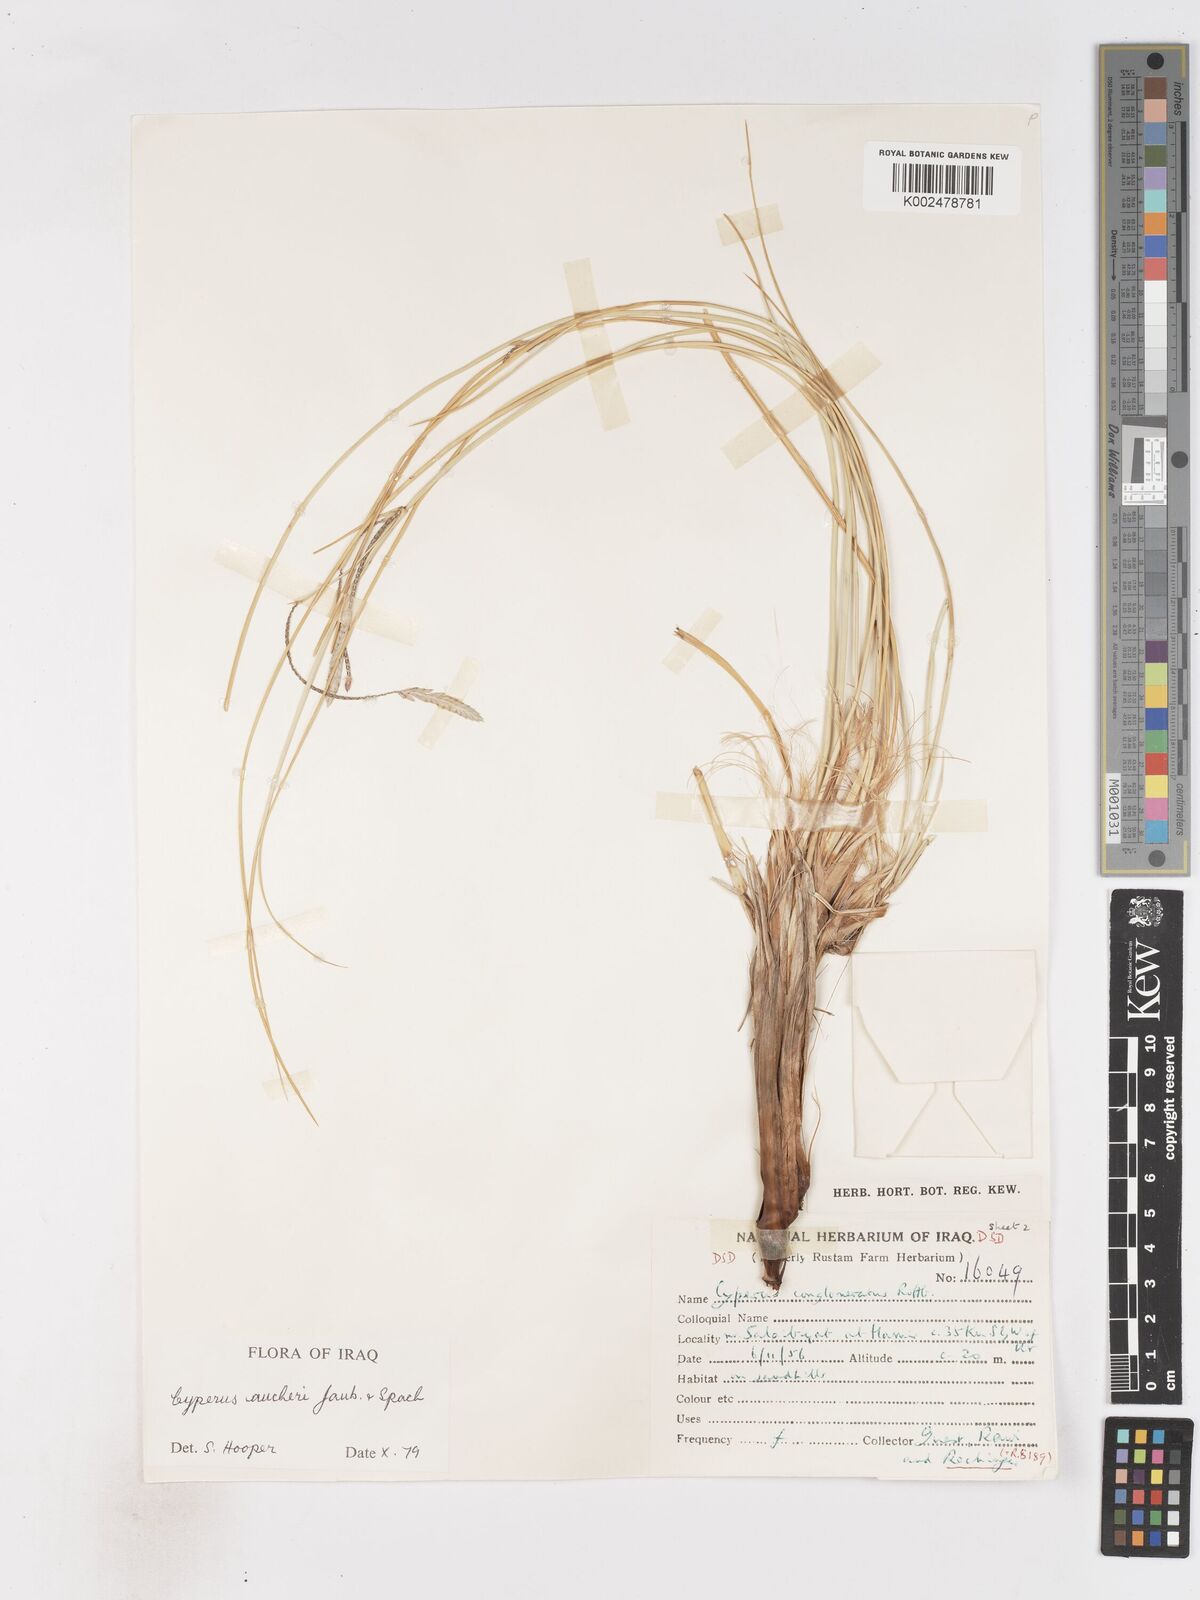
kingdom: Plantae
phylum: Tracheophyta
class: Liliopsida
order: Poales
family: Cyperaceae
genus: Cyperus
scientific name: Cyperus aucheri
